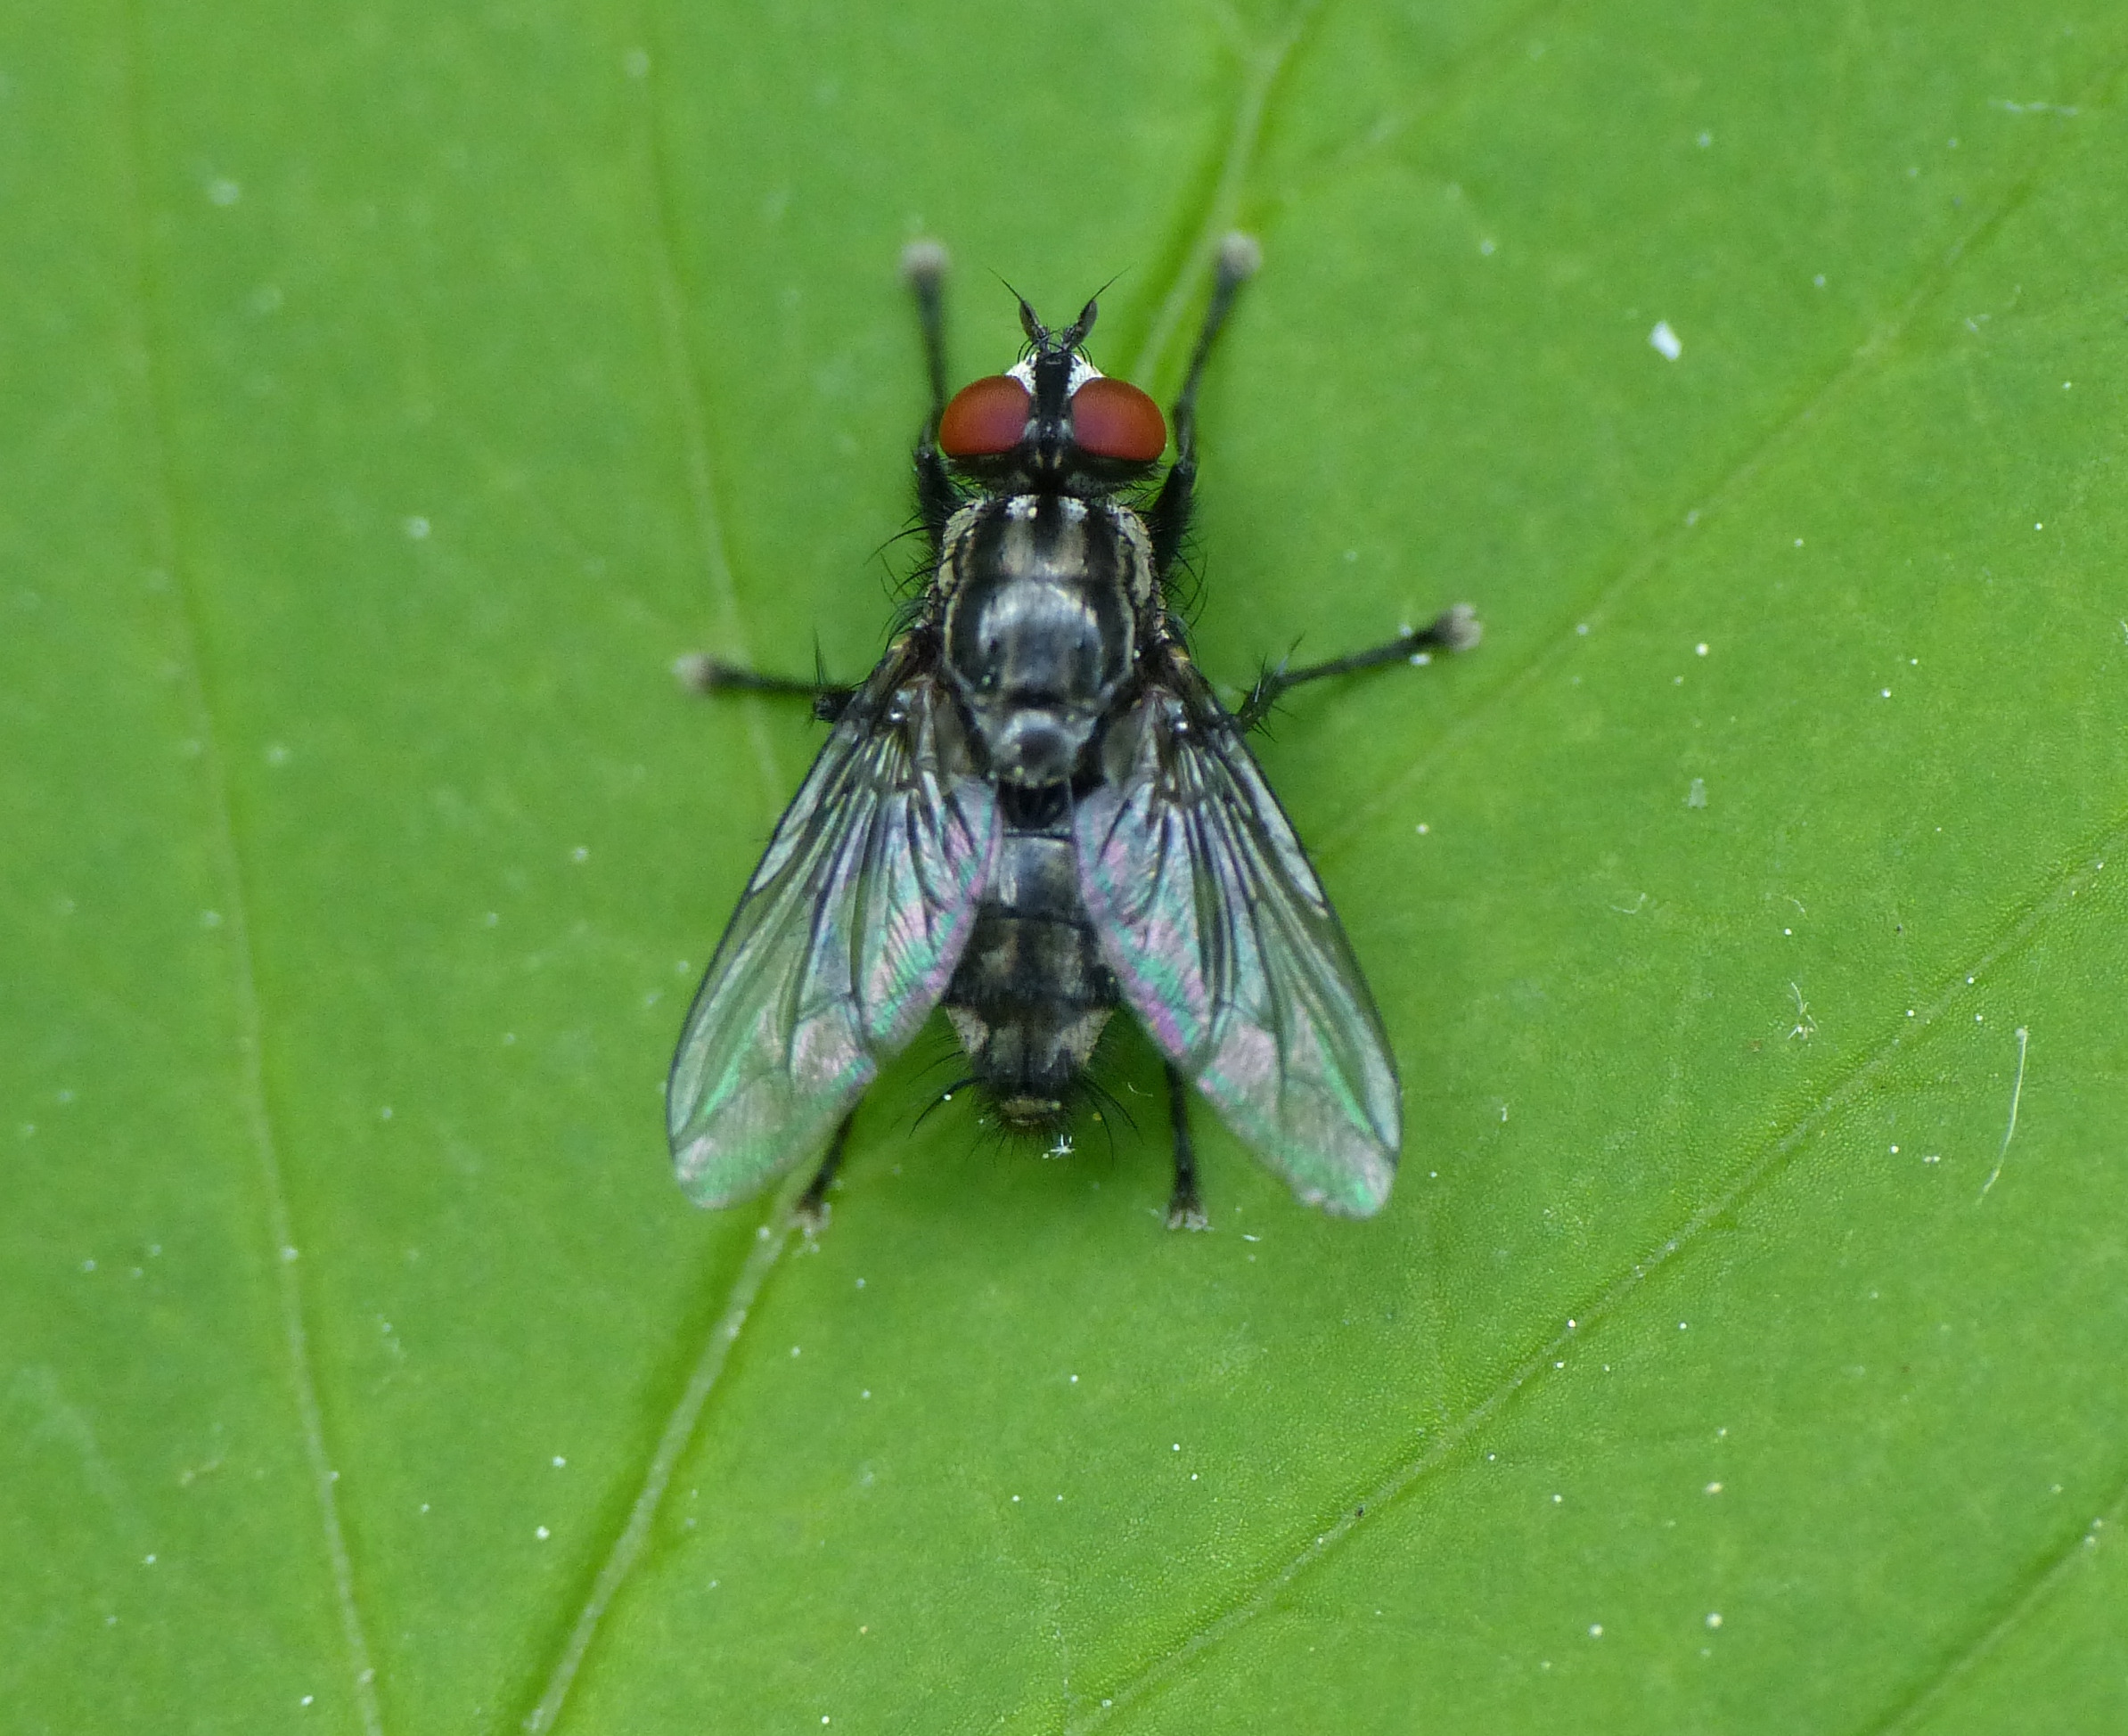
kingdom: Animalia
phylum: Arthropoda
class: Insecta
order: Diptera
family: Sarcophagidae
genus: Sarcophaga
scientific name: Sarcophaga haemorrhoa
